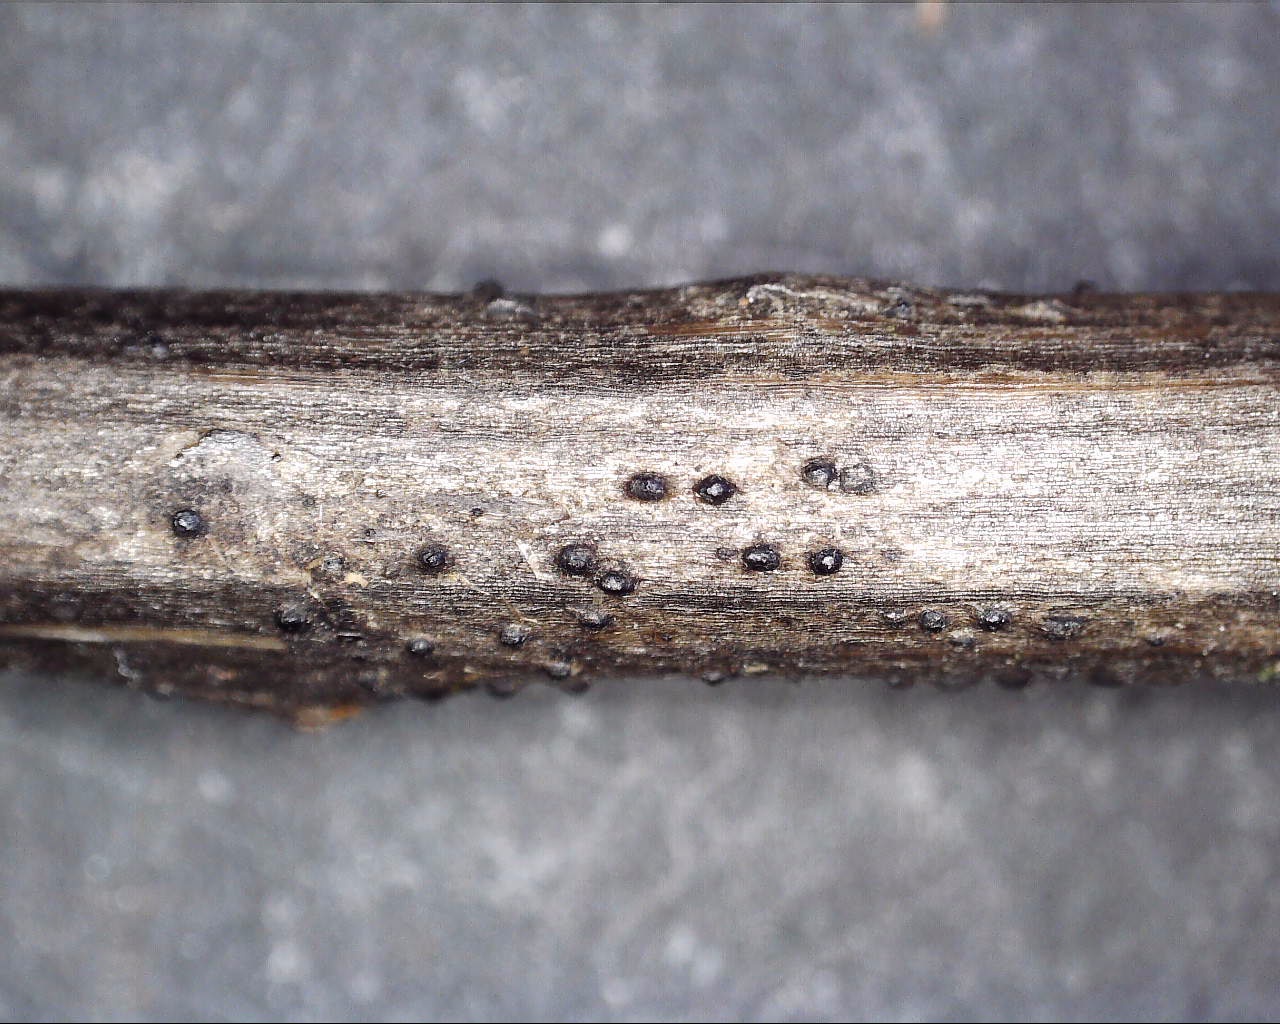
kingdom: Fungi
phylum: Ascomycota
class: Dothideomycetes
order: Pleosporales
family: Phaeosphaeriaceae
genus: Phaeosphaeria
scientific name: Phaeosphaeria sowerbyi
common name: kål-kulkegle
